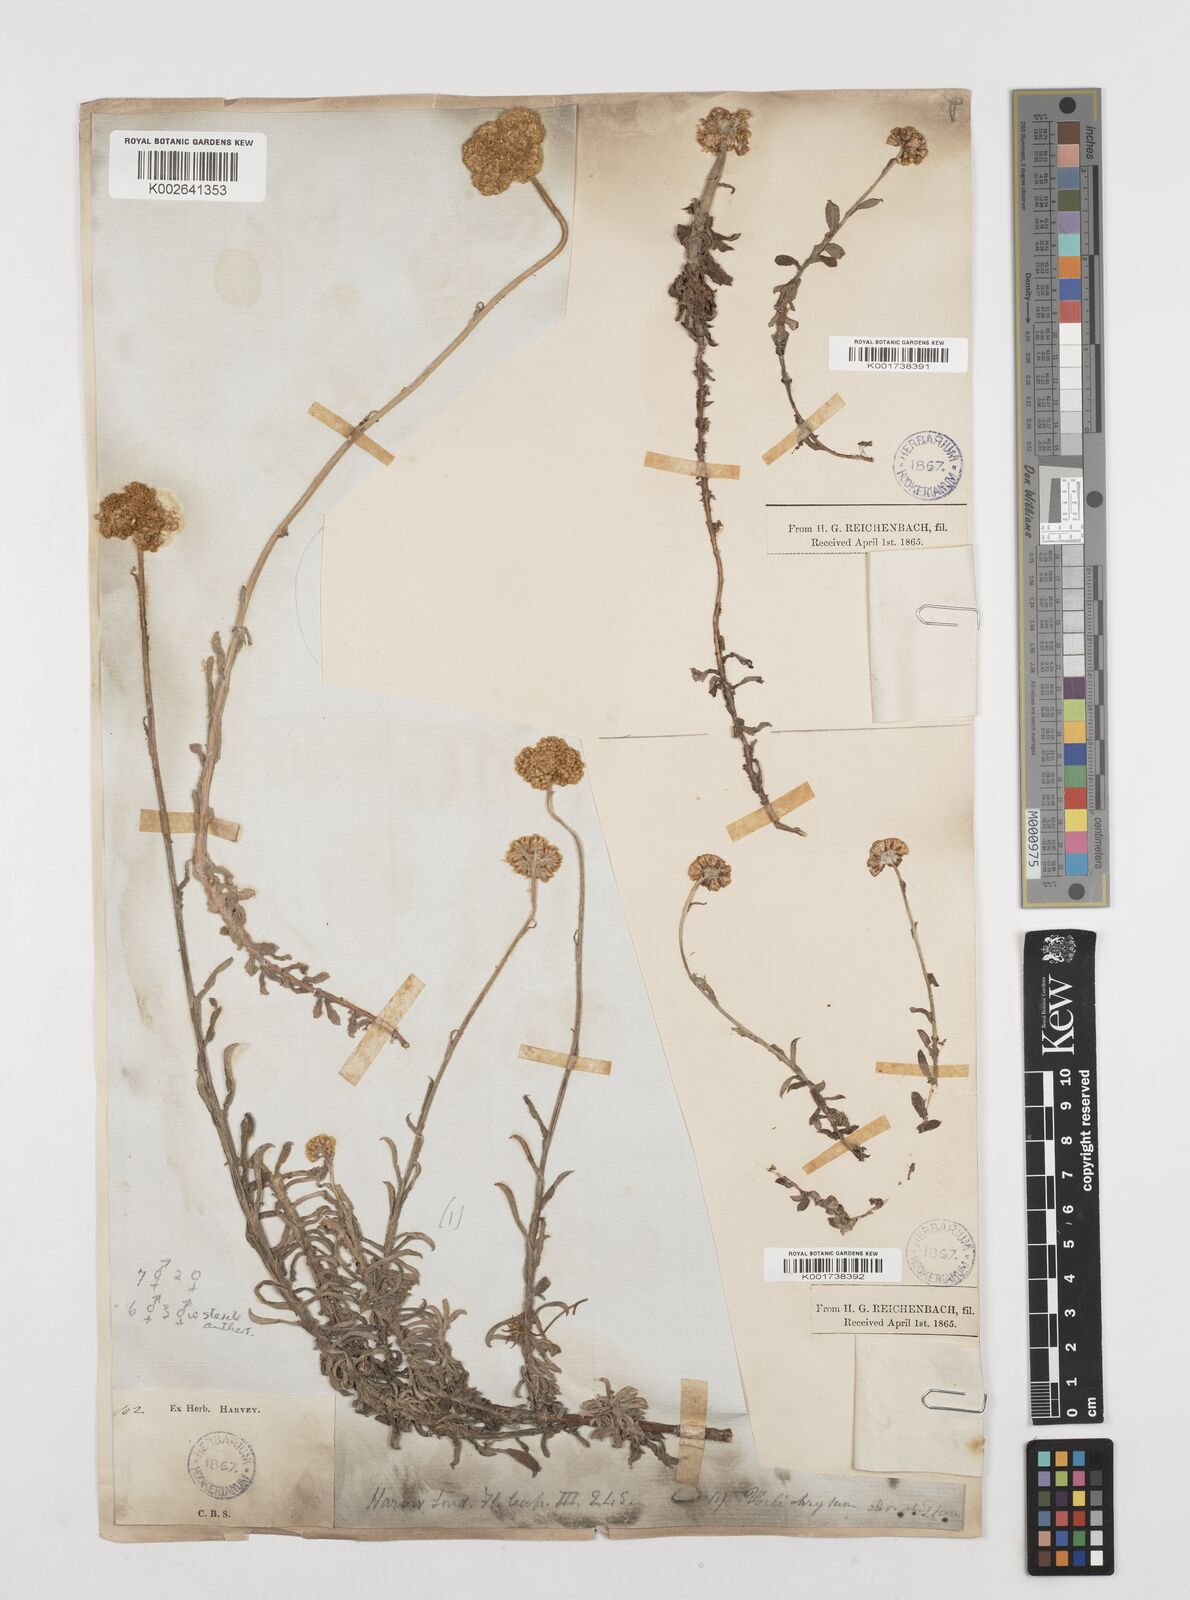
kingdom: Plantae
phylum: Tracheophyta
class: Magnoliopsida
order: Asterales
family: Asteraceae
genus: Helichrysum
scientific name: Helichrysum odoratissimum
